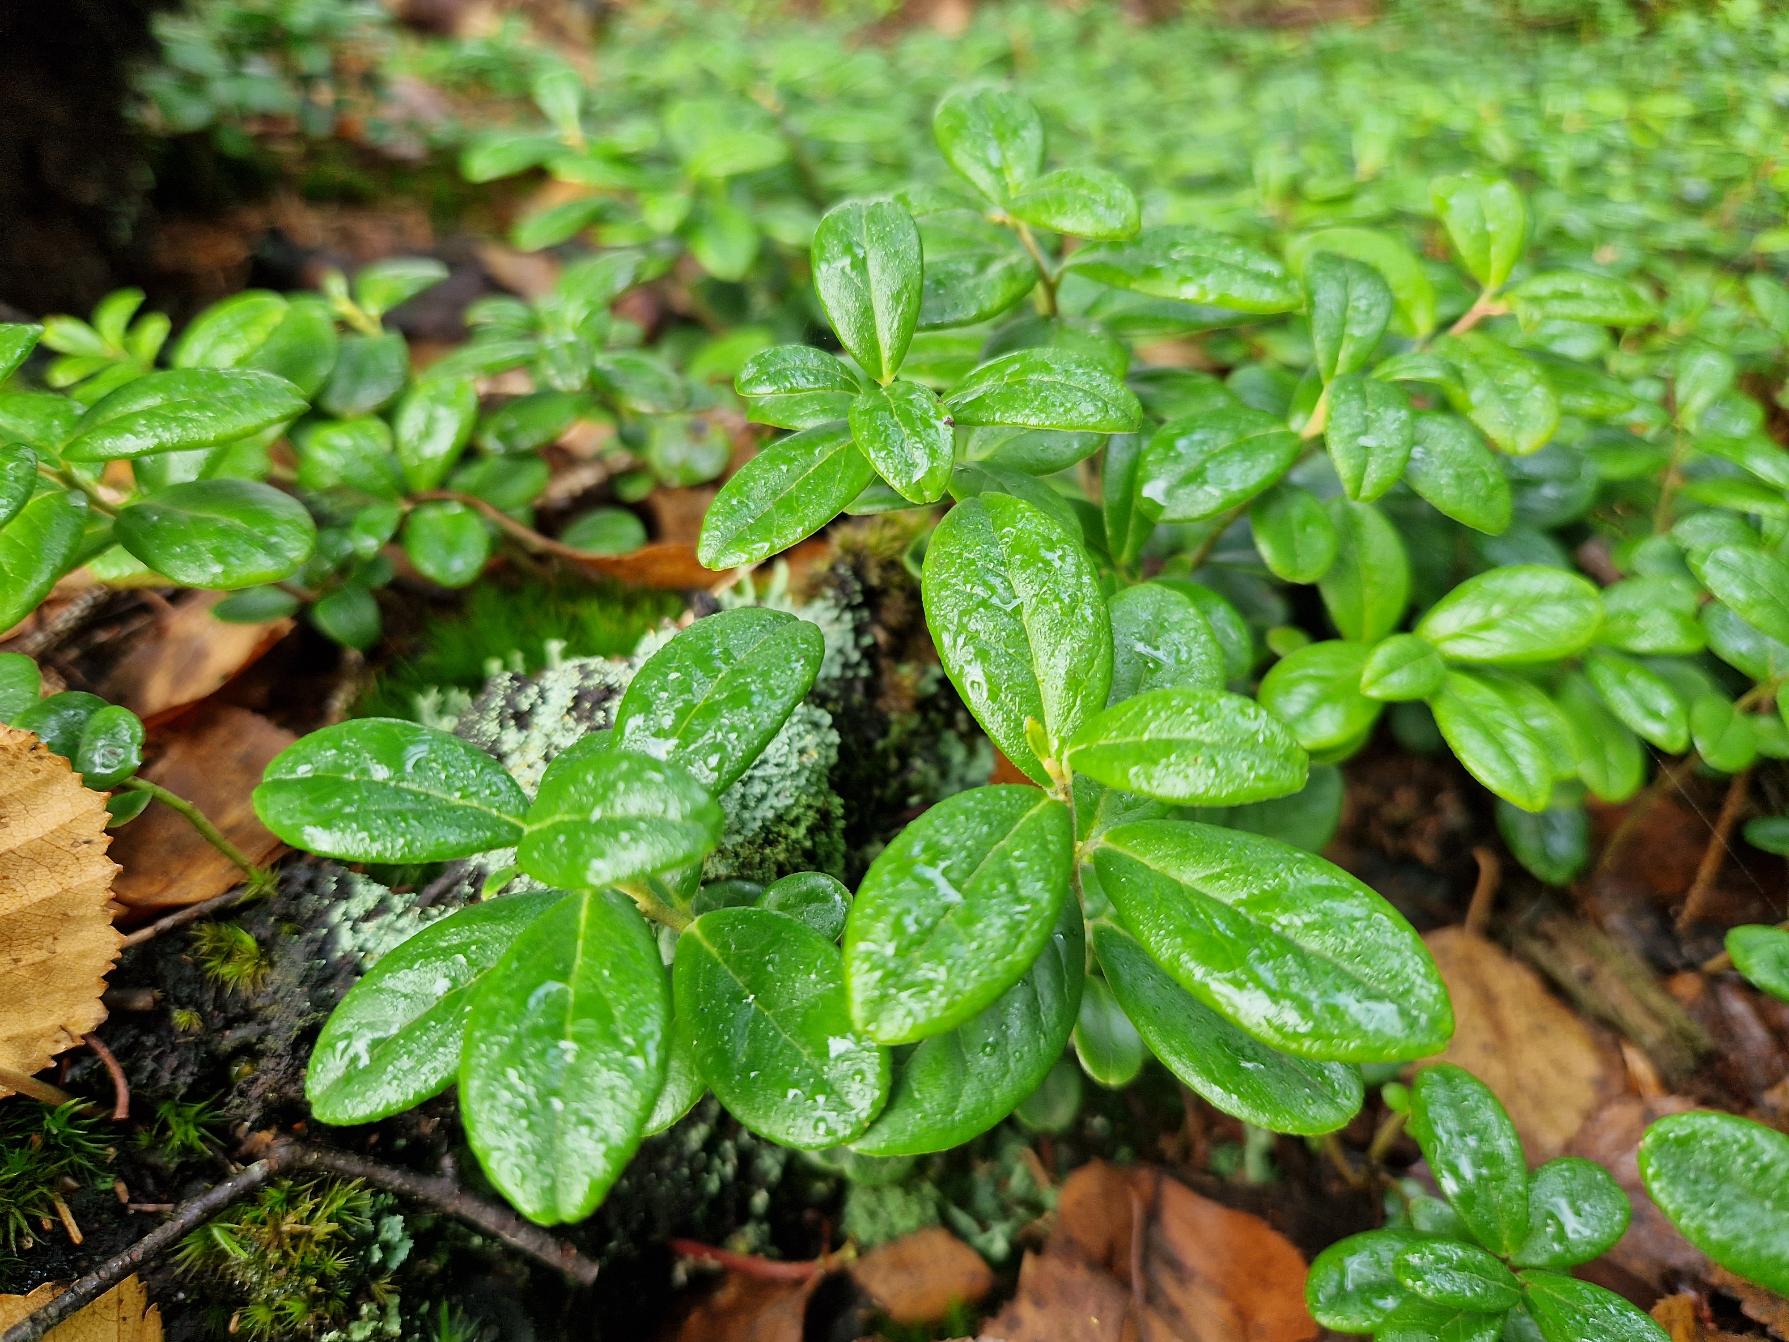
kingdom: Plantae
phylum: Tracheophyta
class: Magnoliopsida
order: Ericales
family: Ericaceae
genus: Vaccinium
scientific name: Vaccinium vitis-idaea
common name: Tyttebær
